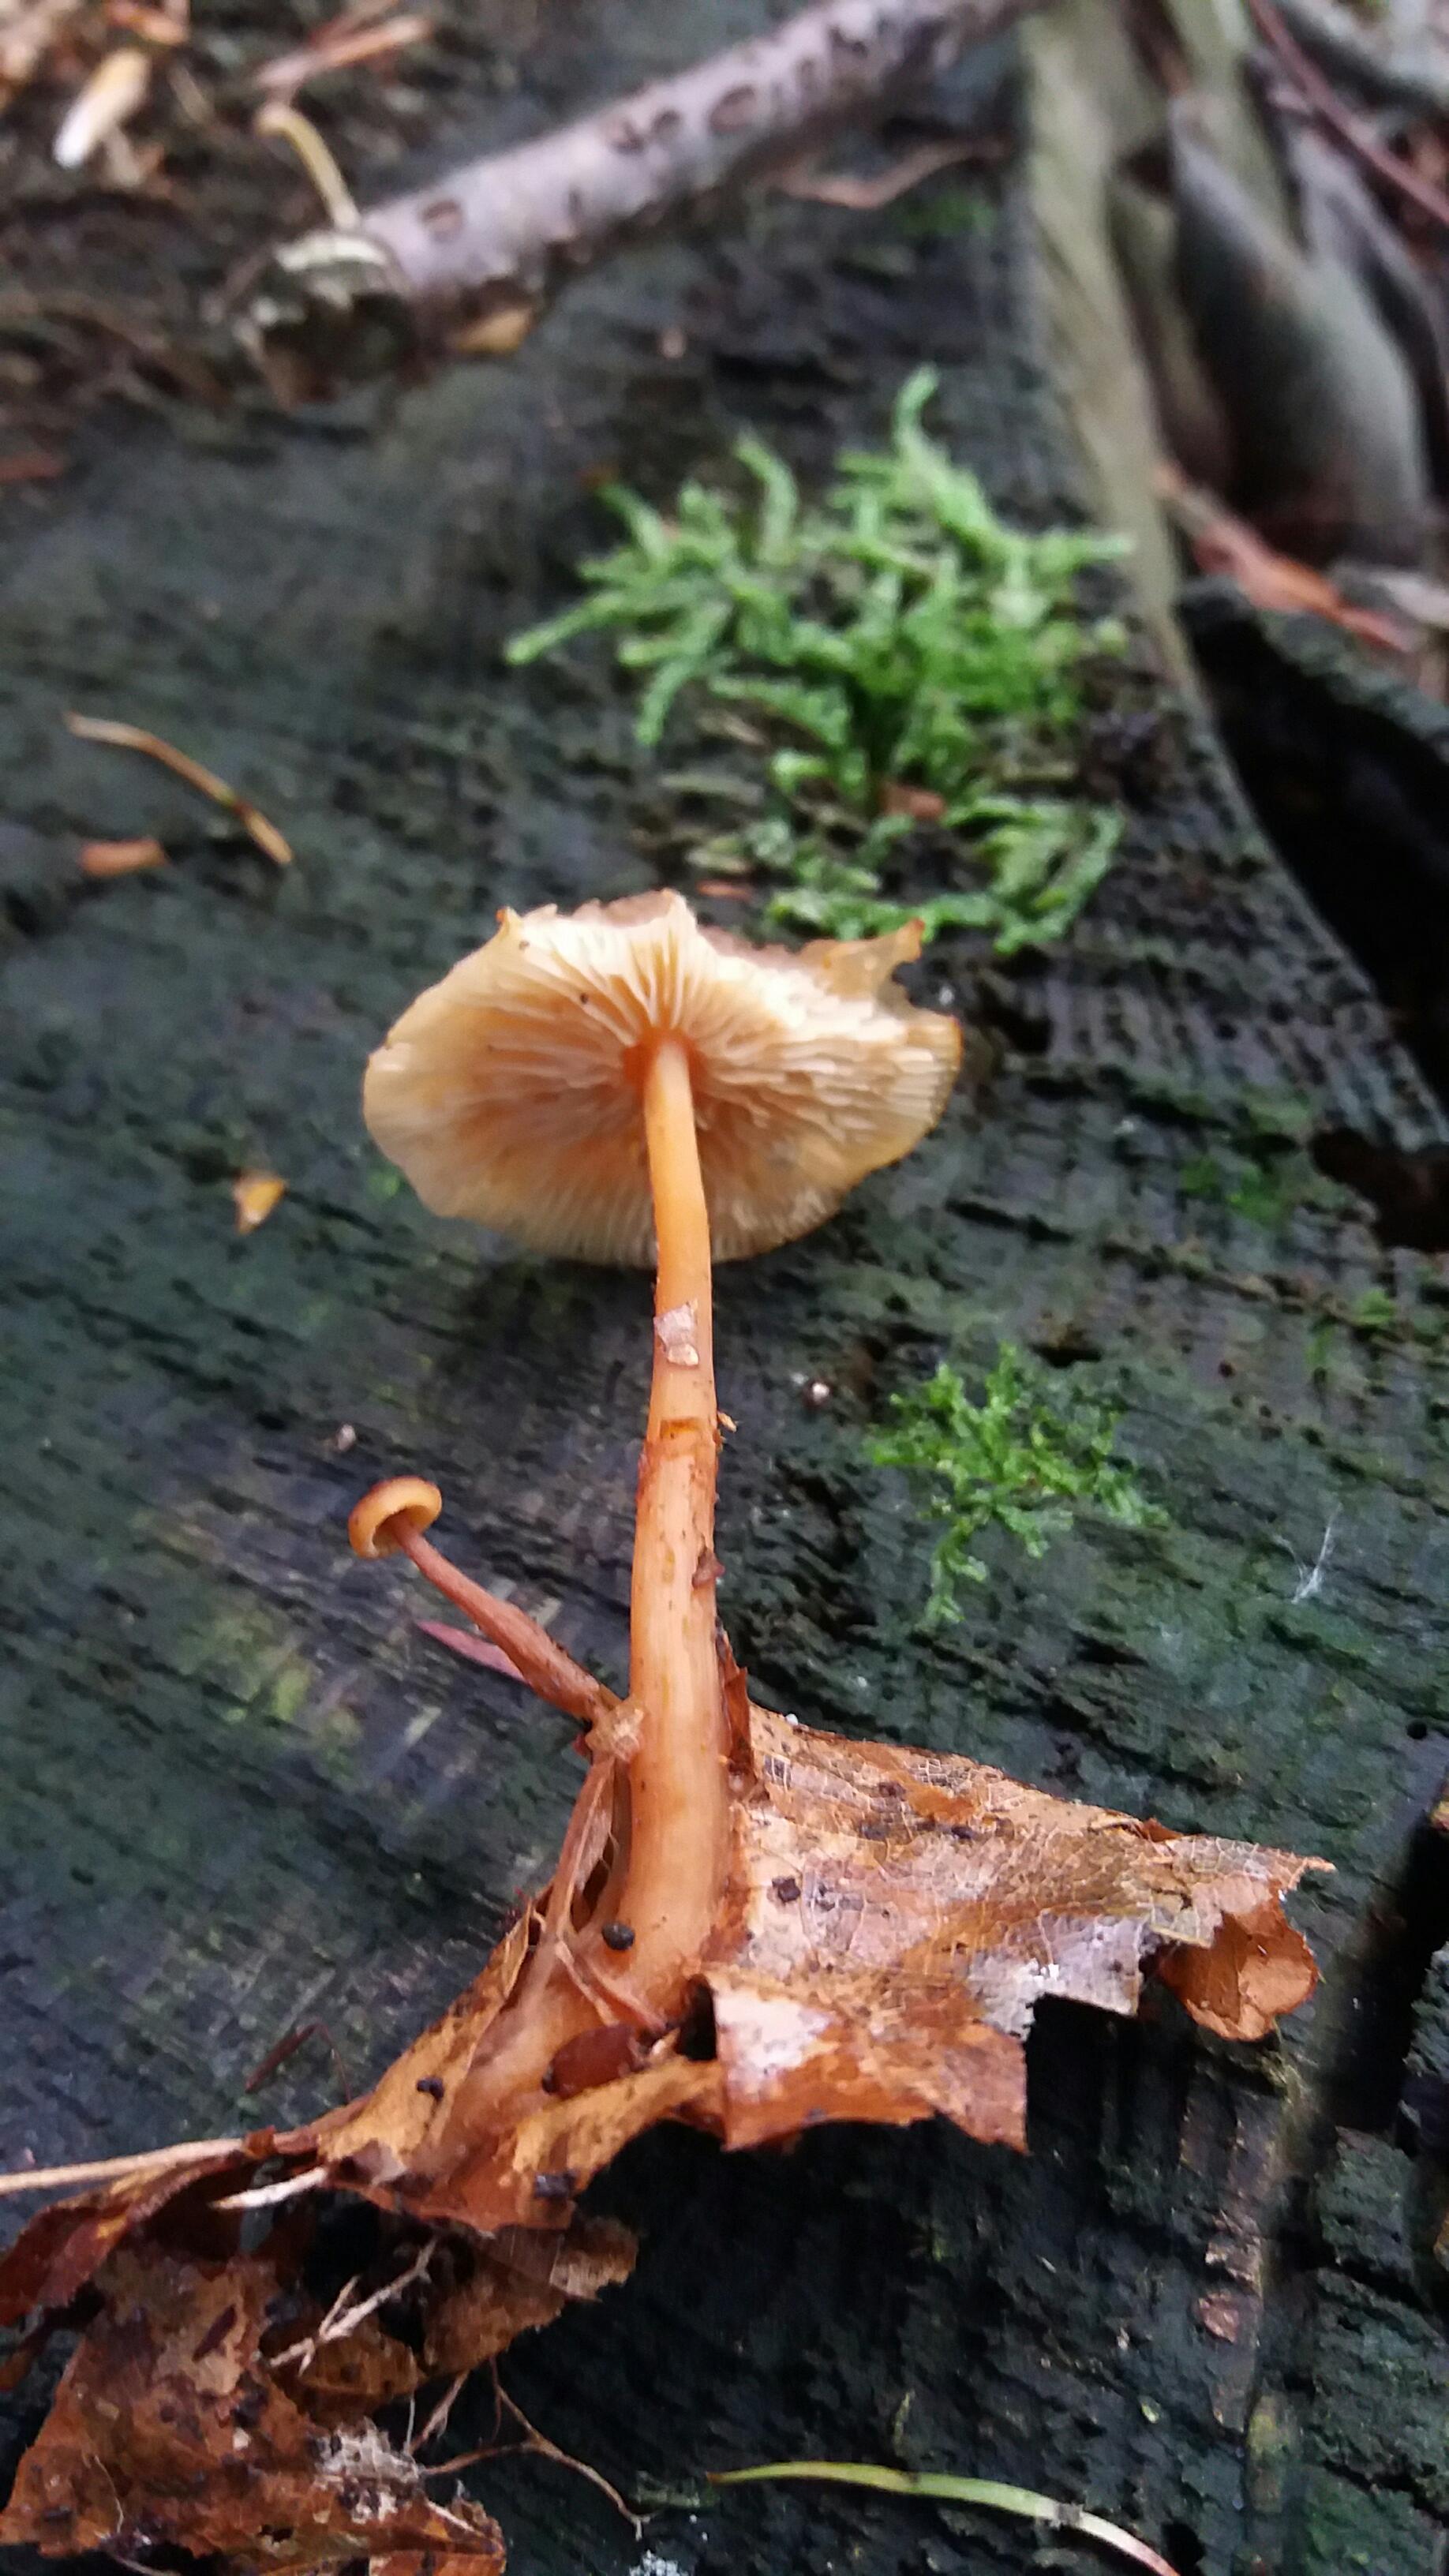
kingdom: Fungi
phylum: Basidiomycota
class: Agaricomycetes
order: Agaricales
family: Omphalotaceae
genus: Gymnopus
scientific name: Gymnopus dryophilus
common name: løv-fladhat
